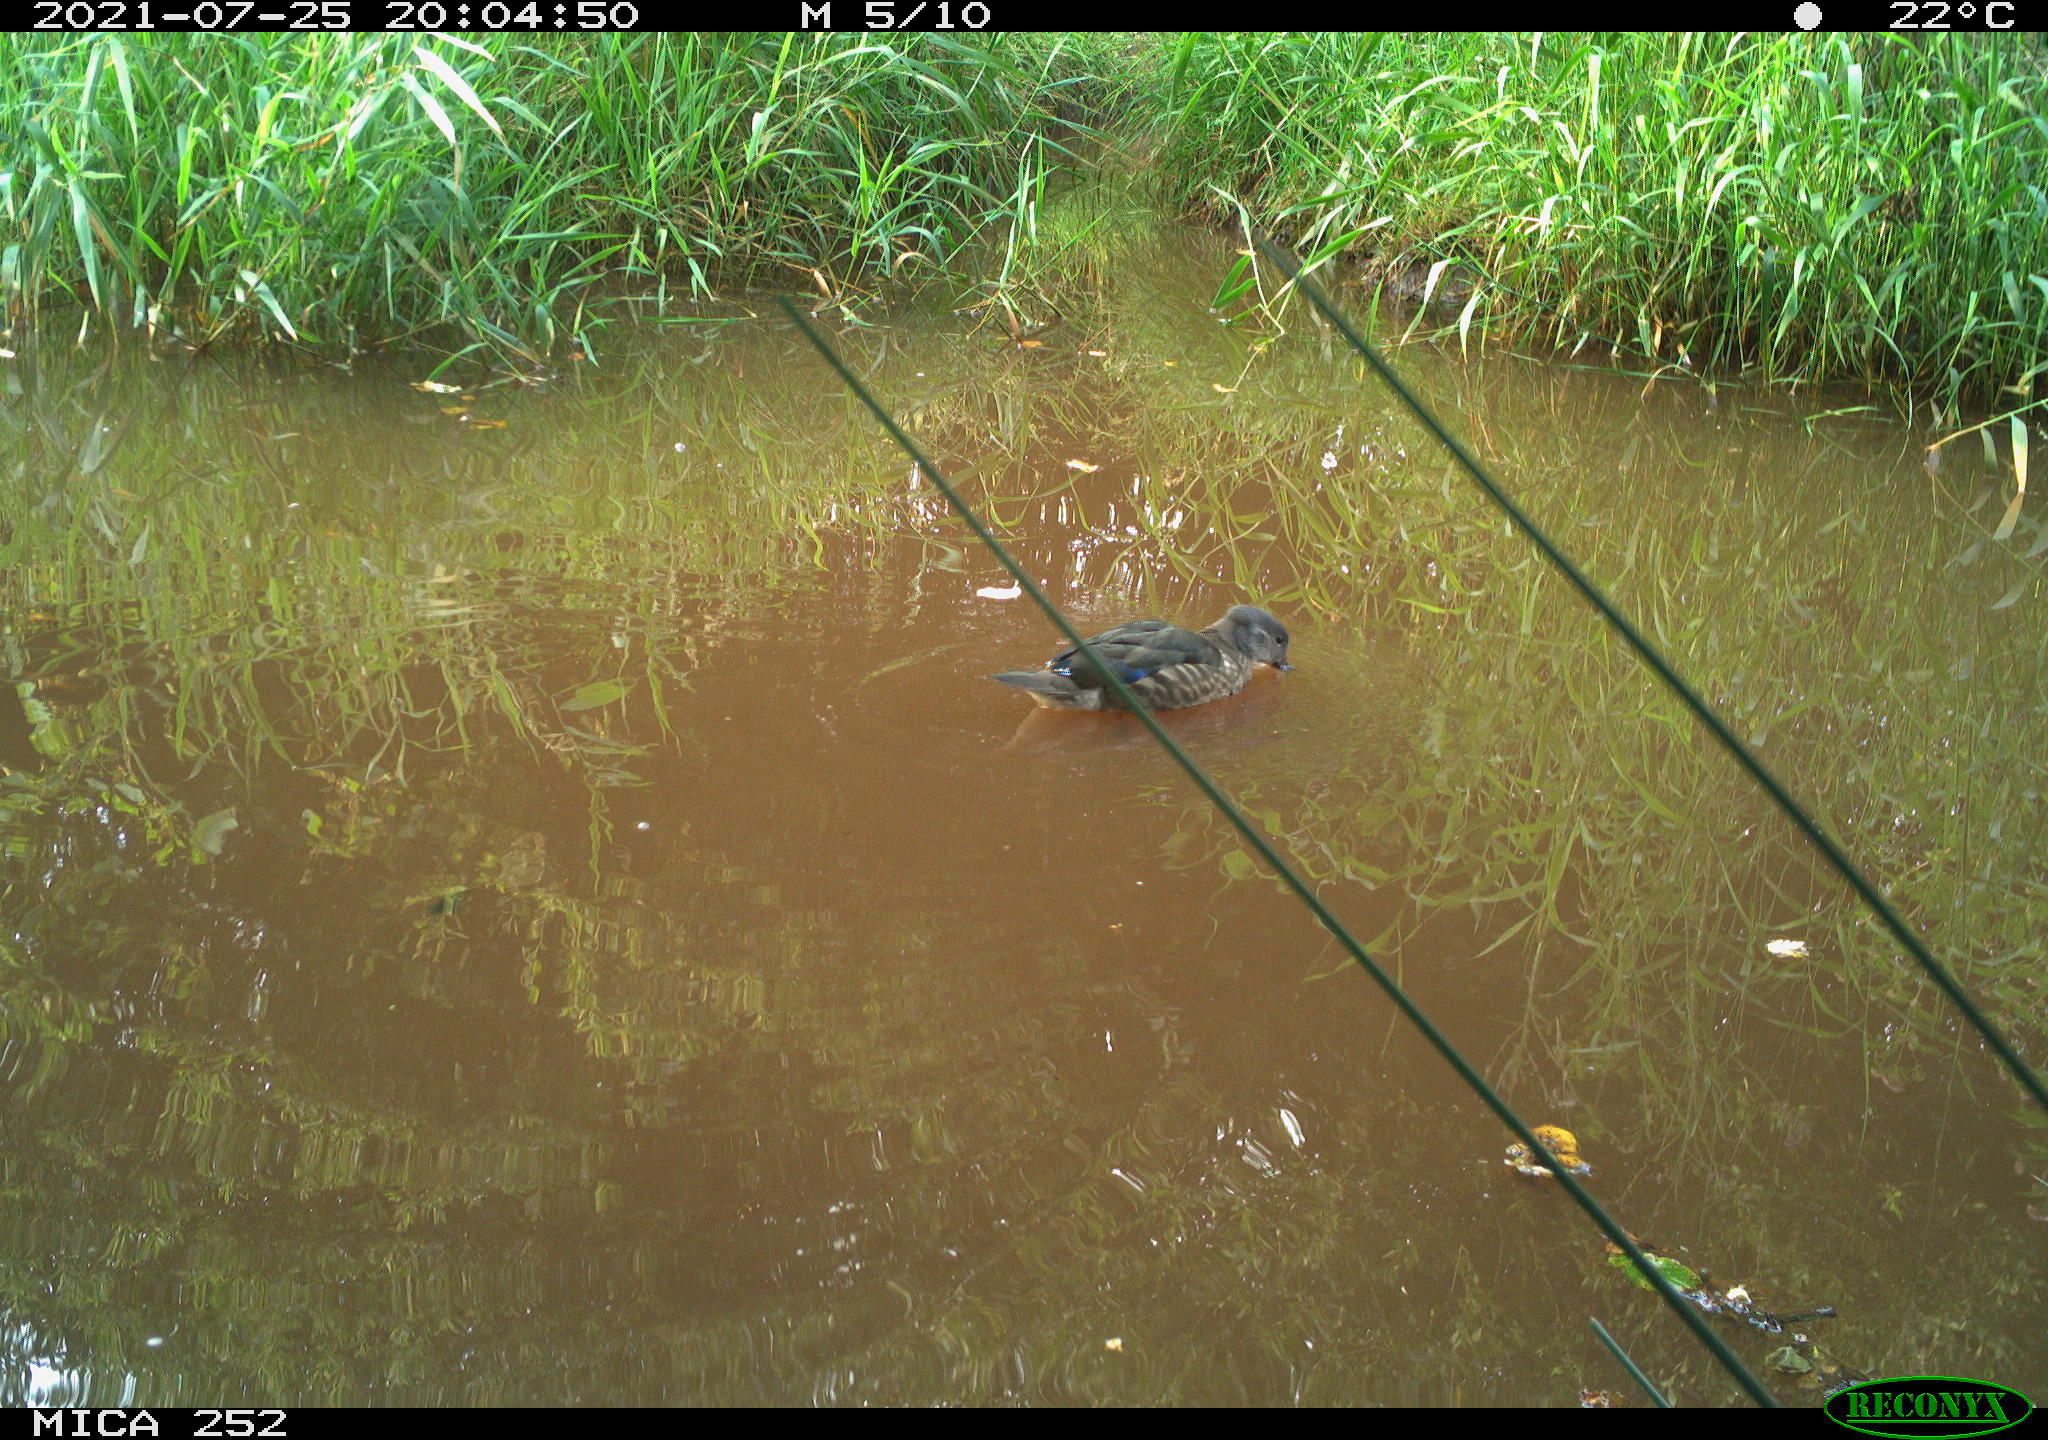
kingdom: Animalia
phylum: Chordata
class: Aves
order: Anseriformes
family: Anatidae
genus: Anas
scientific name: Anas
